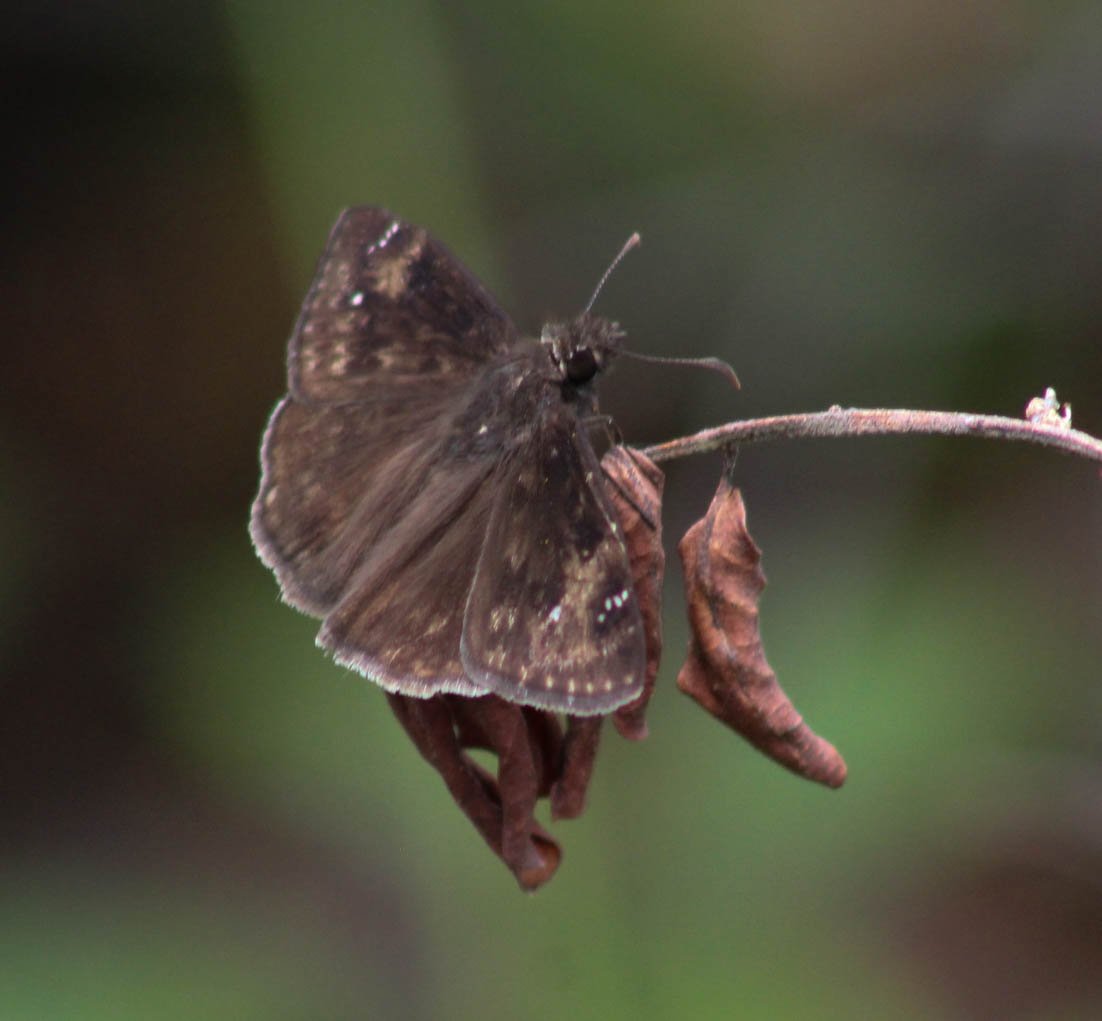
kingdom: Animalia
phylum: Arthropoda
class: Insecta
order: Lepidoptera
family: Hesperiidae
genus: Gesta
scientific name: Gesta
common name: Horace's Duskywing
